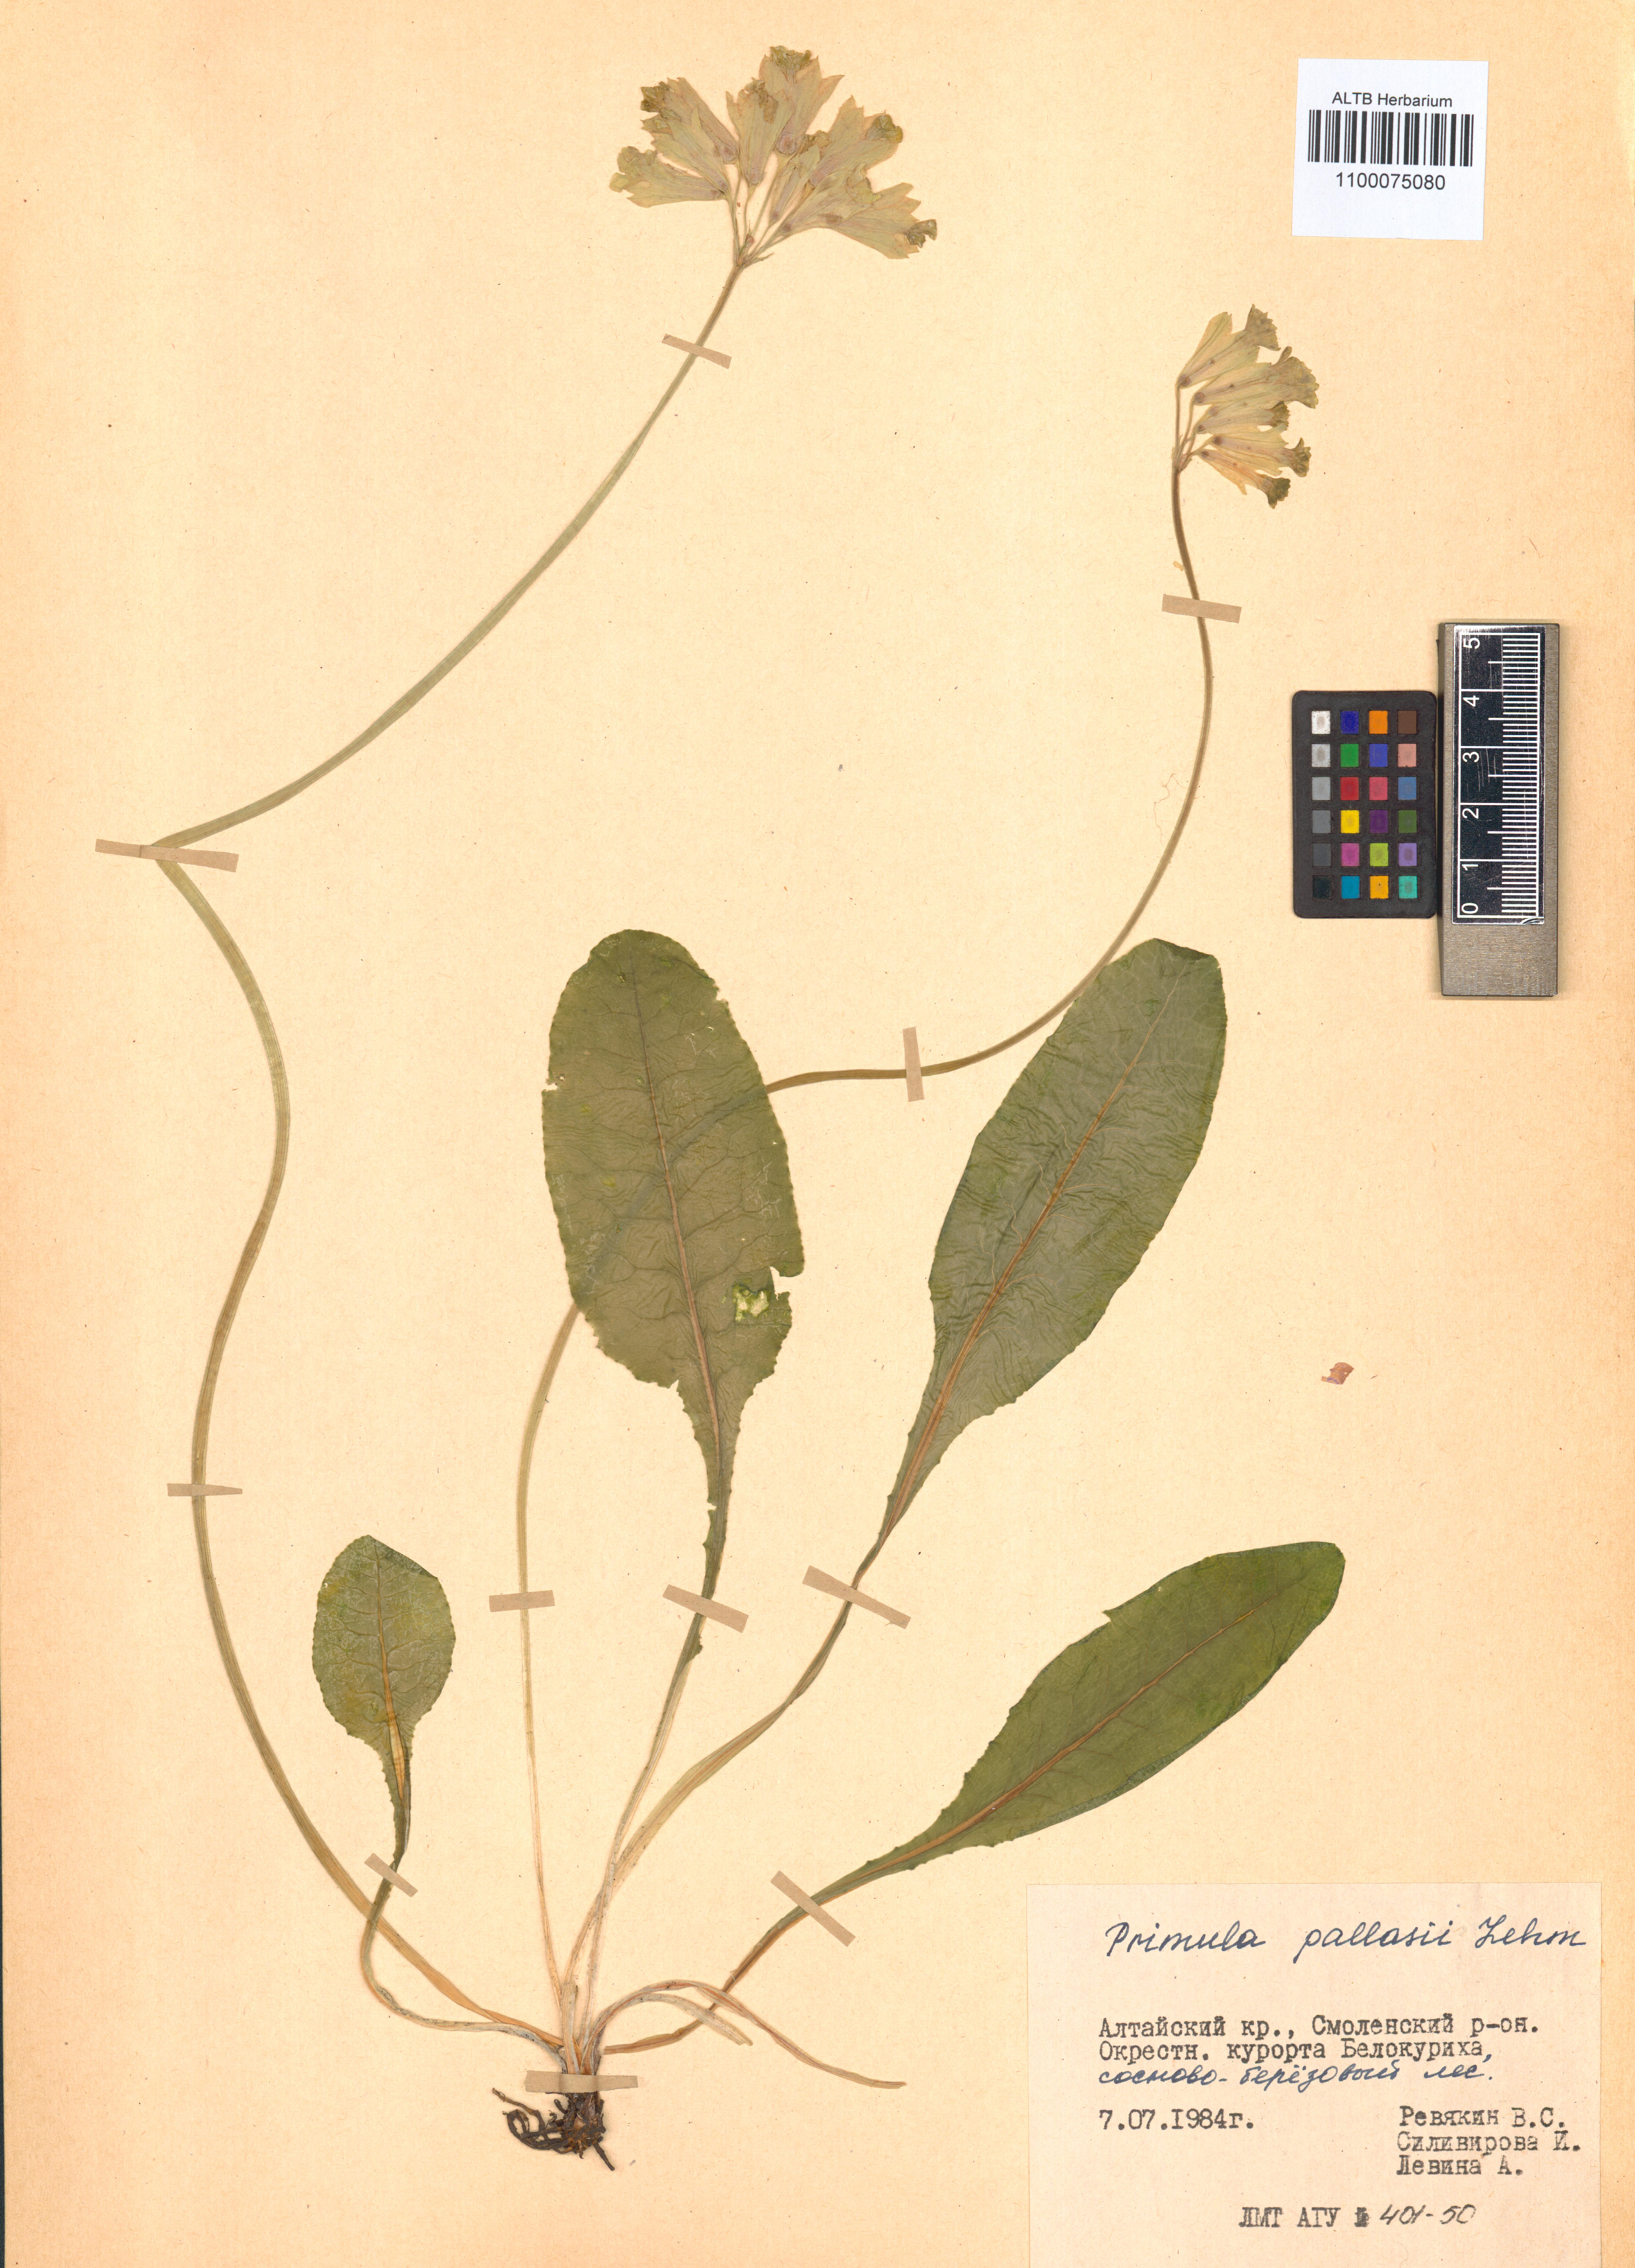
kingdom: Plantae
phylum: Tracheophyta
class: Magnoliopsida
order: Ericales
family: Primulaceae
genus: Primula
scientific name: Primula elatior
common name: Oxlip
